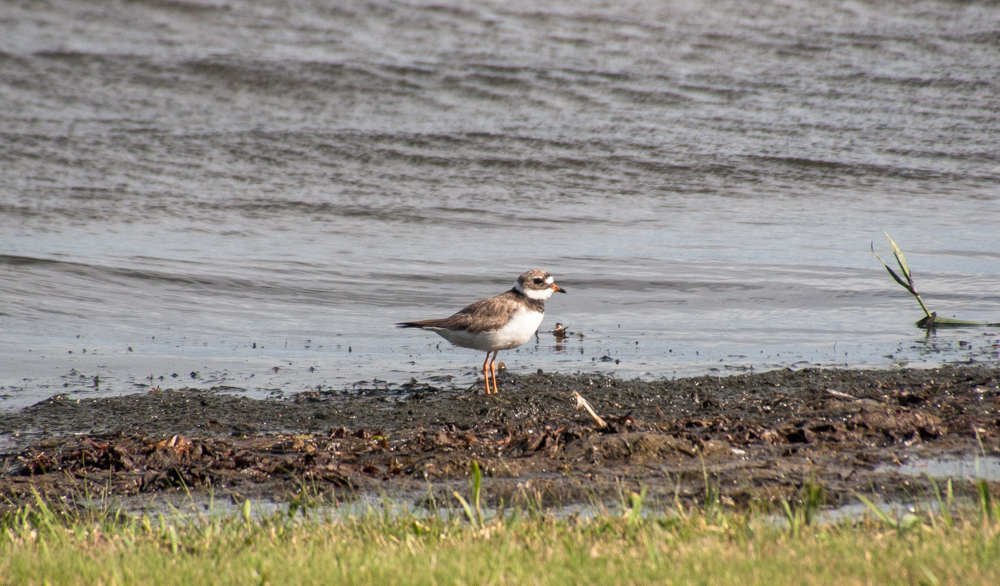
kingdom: Animalia
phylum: Chordata
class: Aves
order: Charadriiformes
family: Charadriidae
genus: Charadrius
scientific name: Charadrius hiaticula
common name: Common ringed plover
